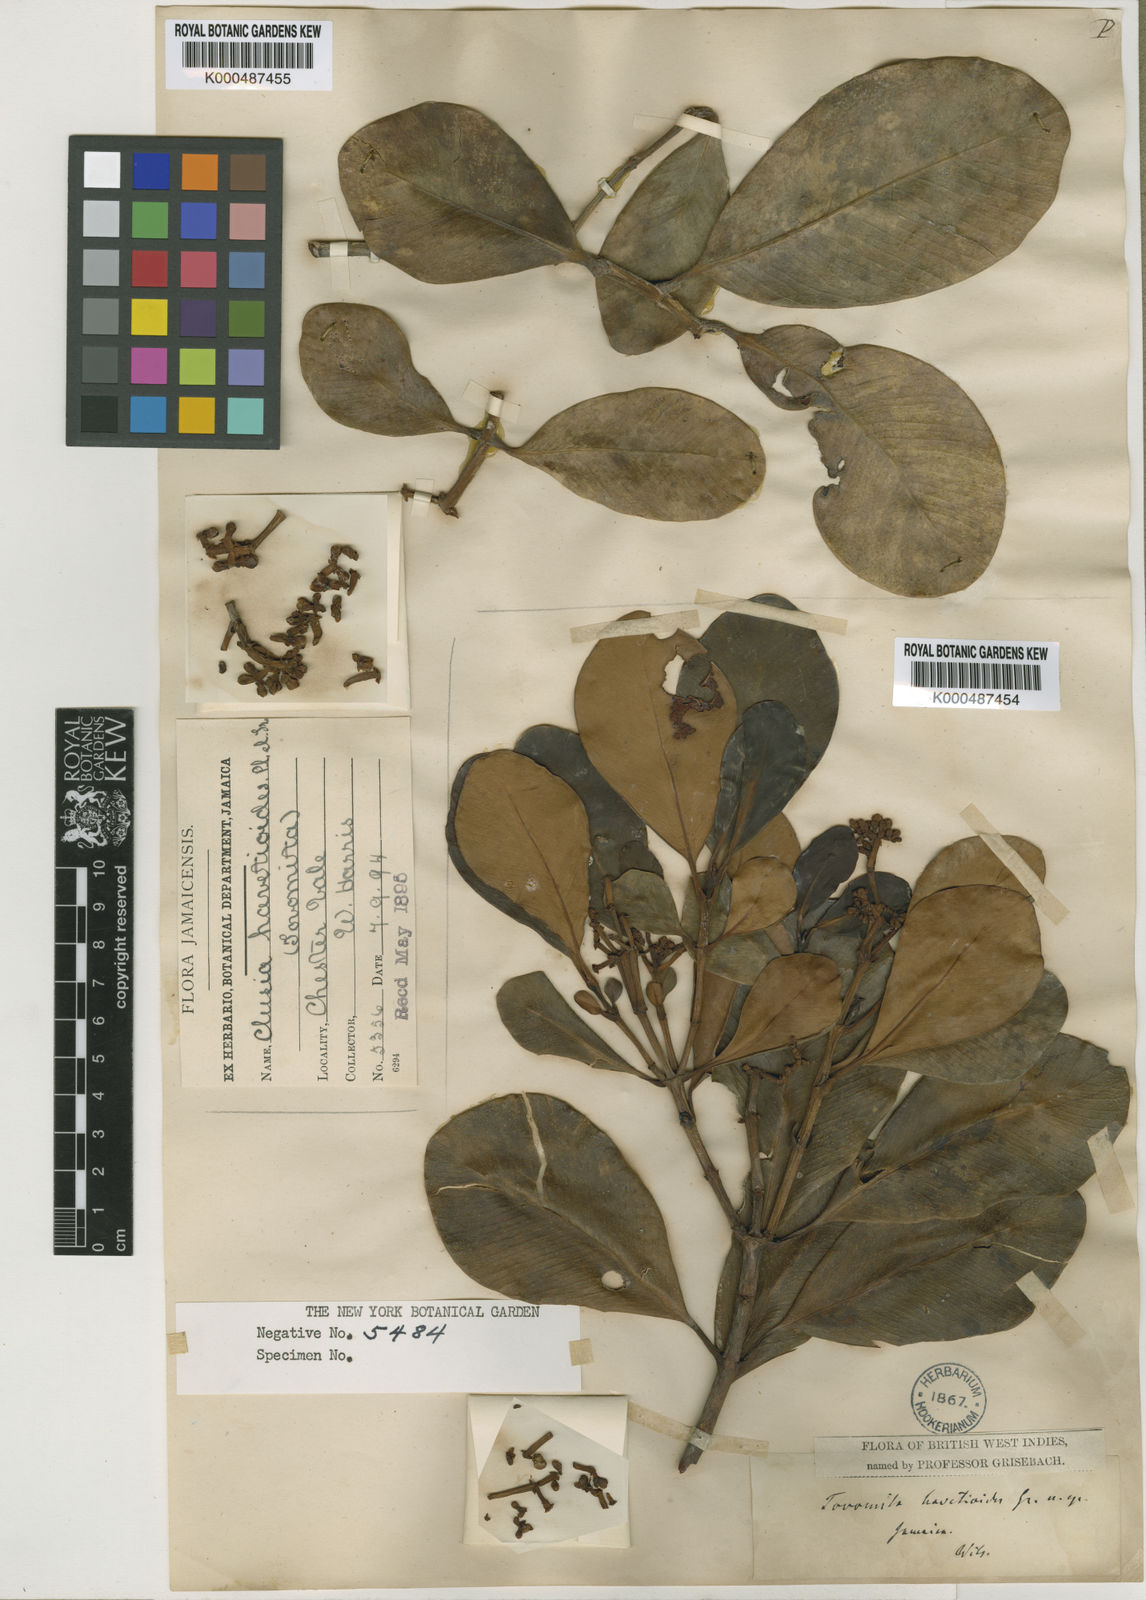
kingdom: Plantae
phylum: Tracheophyta
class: Magnoliopsida
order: Malpighiales
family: Clusiaceae
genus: Clusia
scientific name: Clusia havetioides
